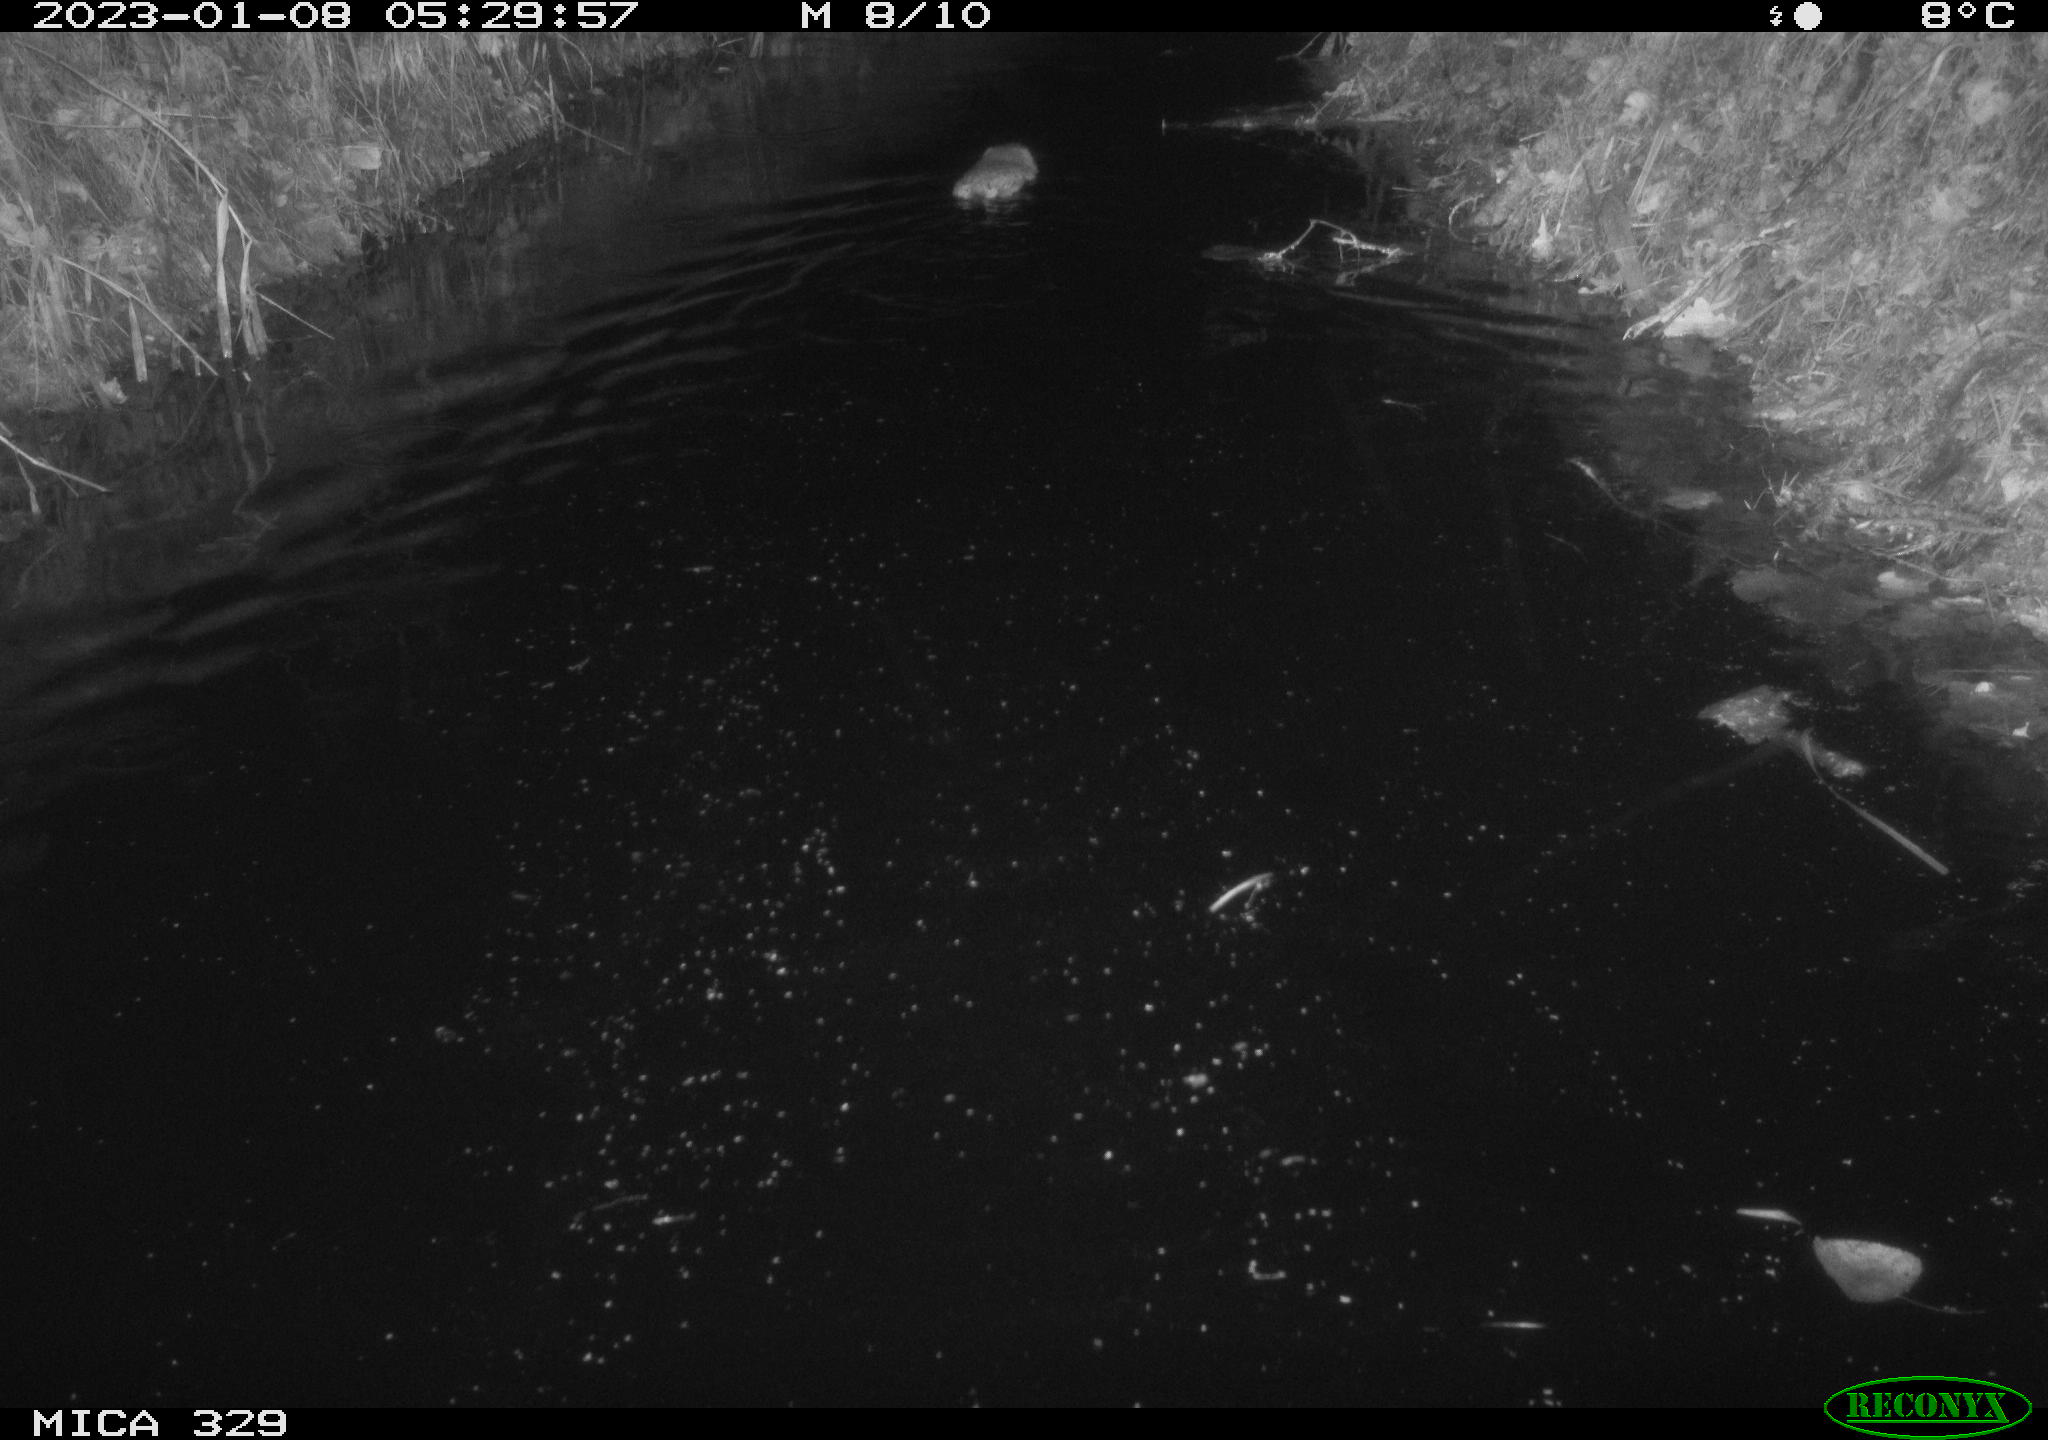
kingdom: Animalia
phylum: Chordata
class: Mammalia
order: Rodentia
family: Cricetidae
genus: Ondatra
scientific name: Ondatra zibethicus
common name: Muskrat
